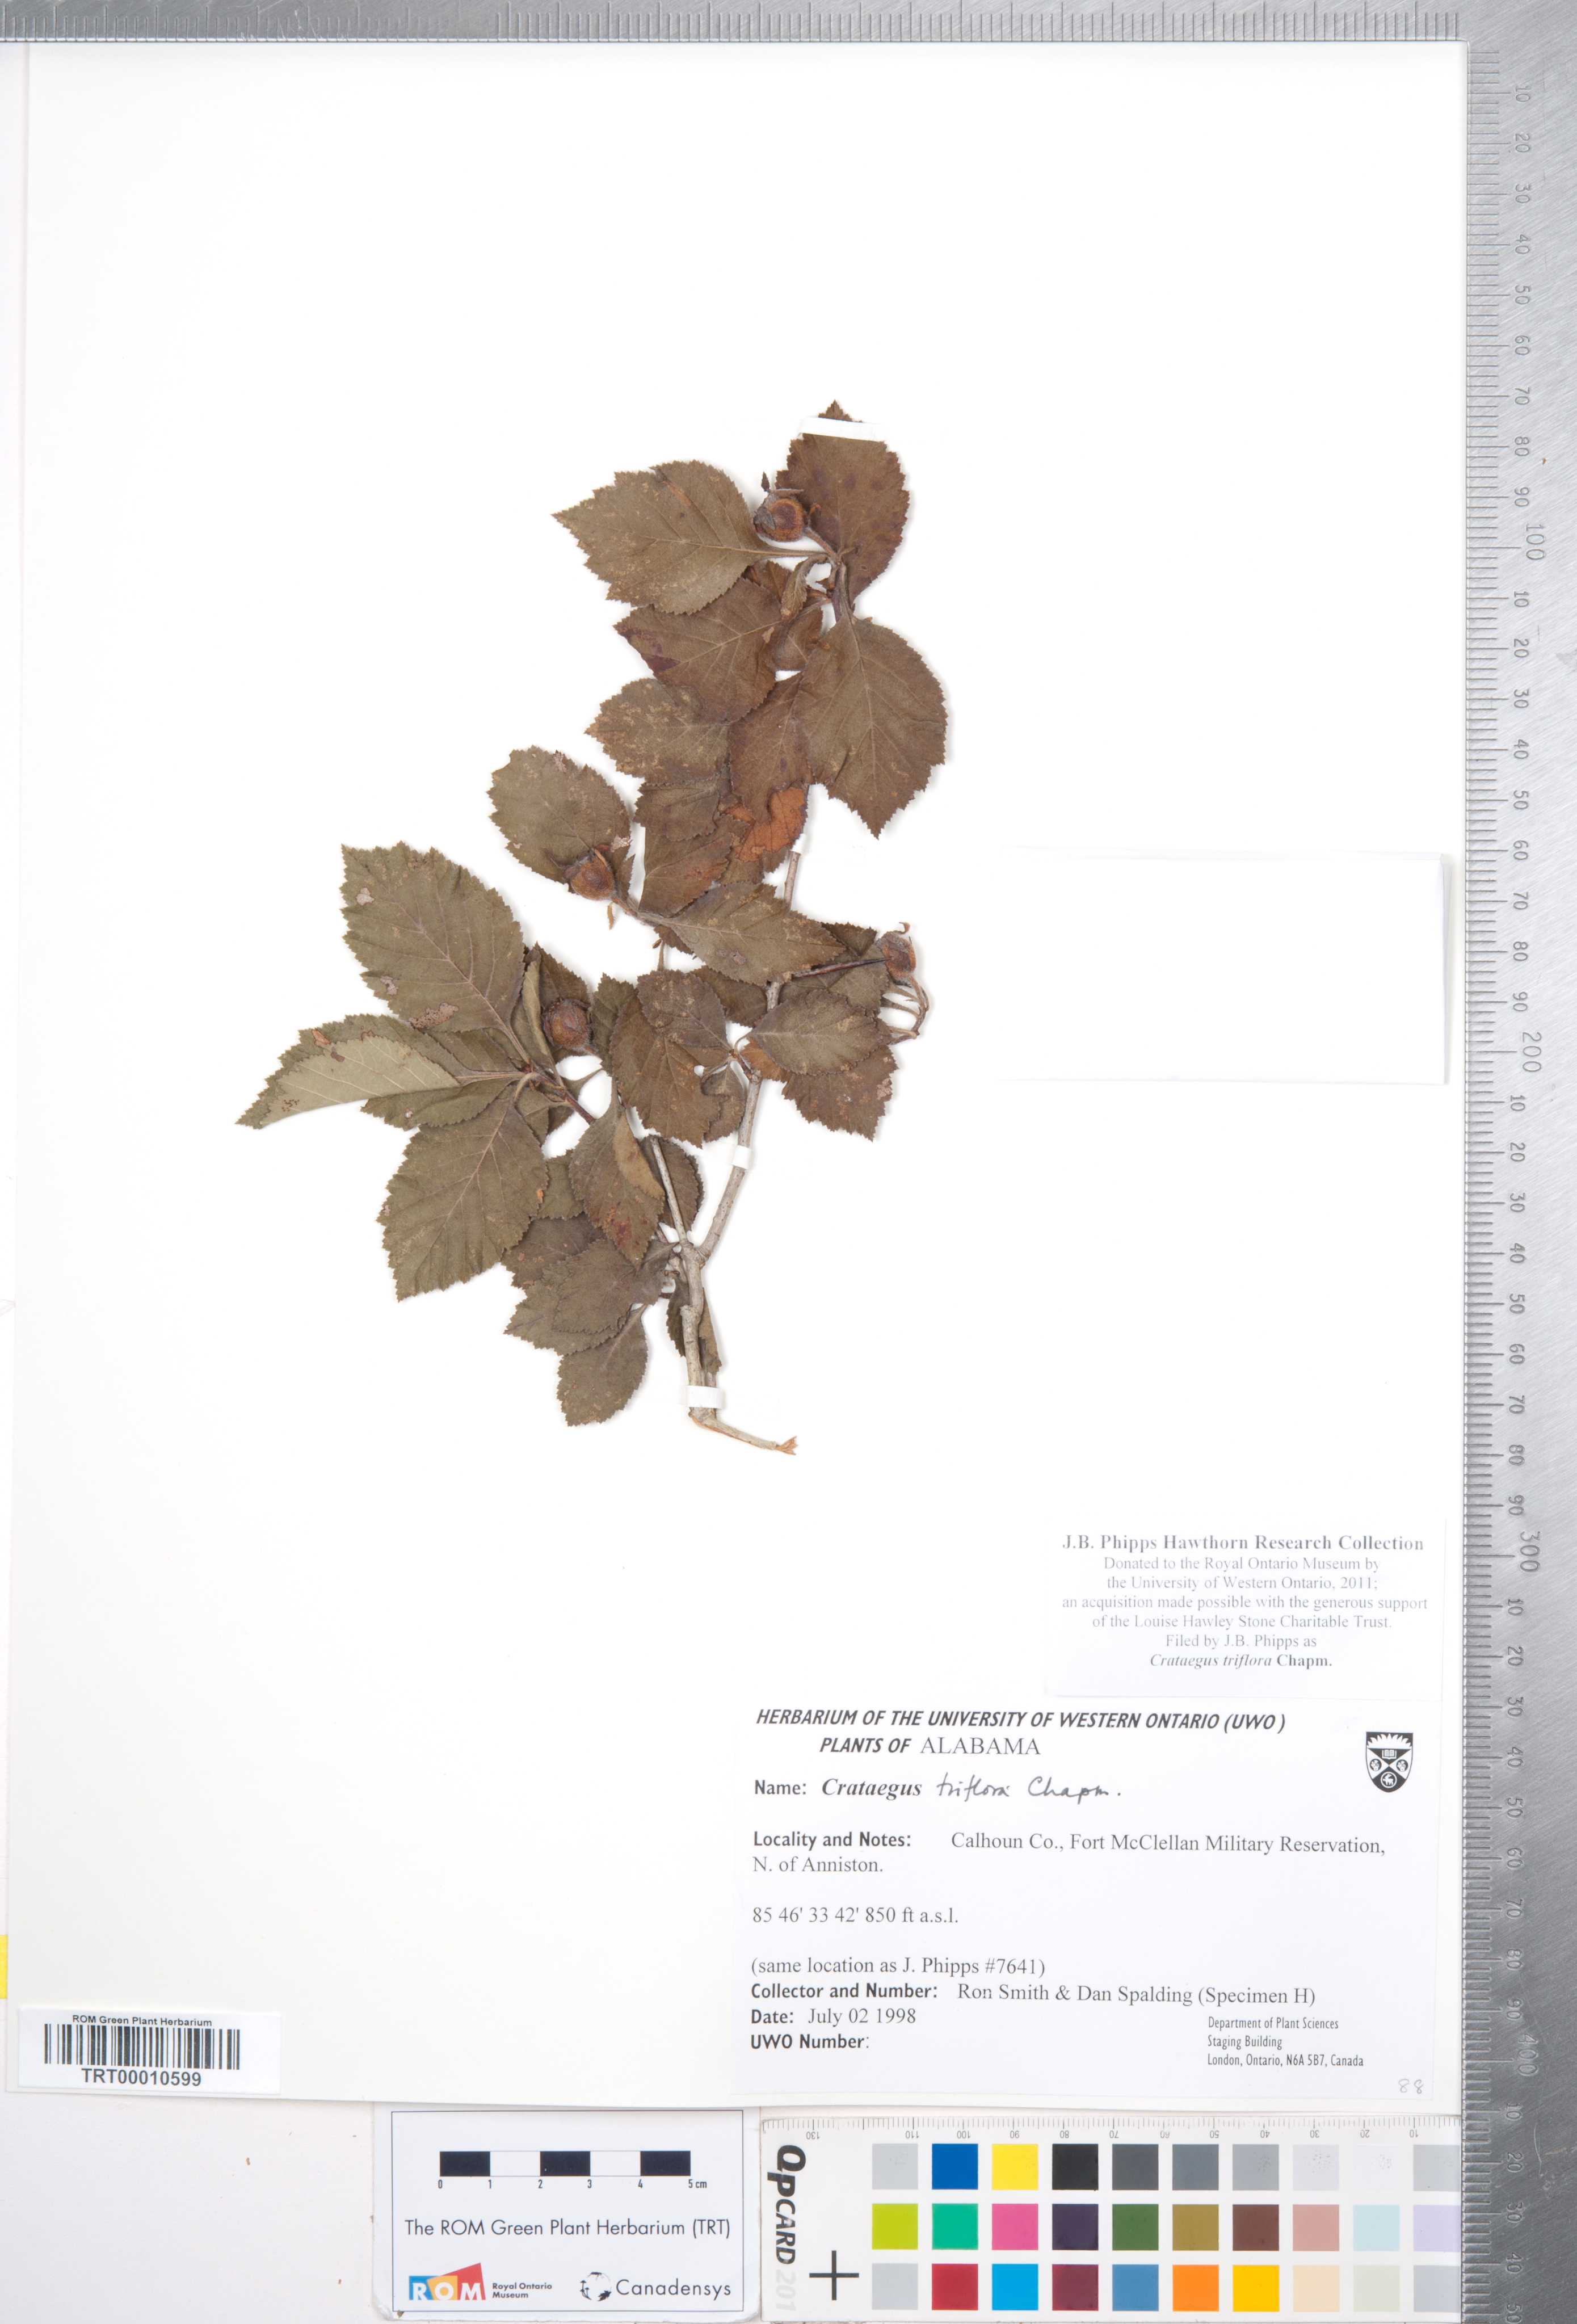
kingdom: Plantae
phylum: Tracheophyta
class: Magnoliopsida
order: Rosales
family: Rosaceae
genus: Crataegus
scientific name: Crataegus triflora
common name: Three-flower hawthorn
